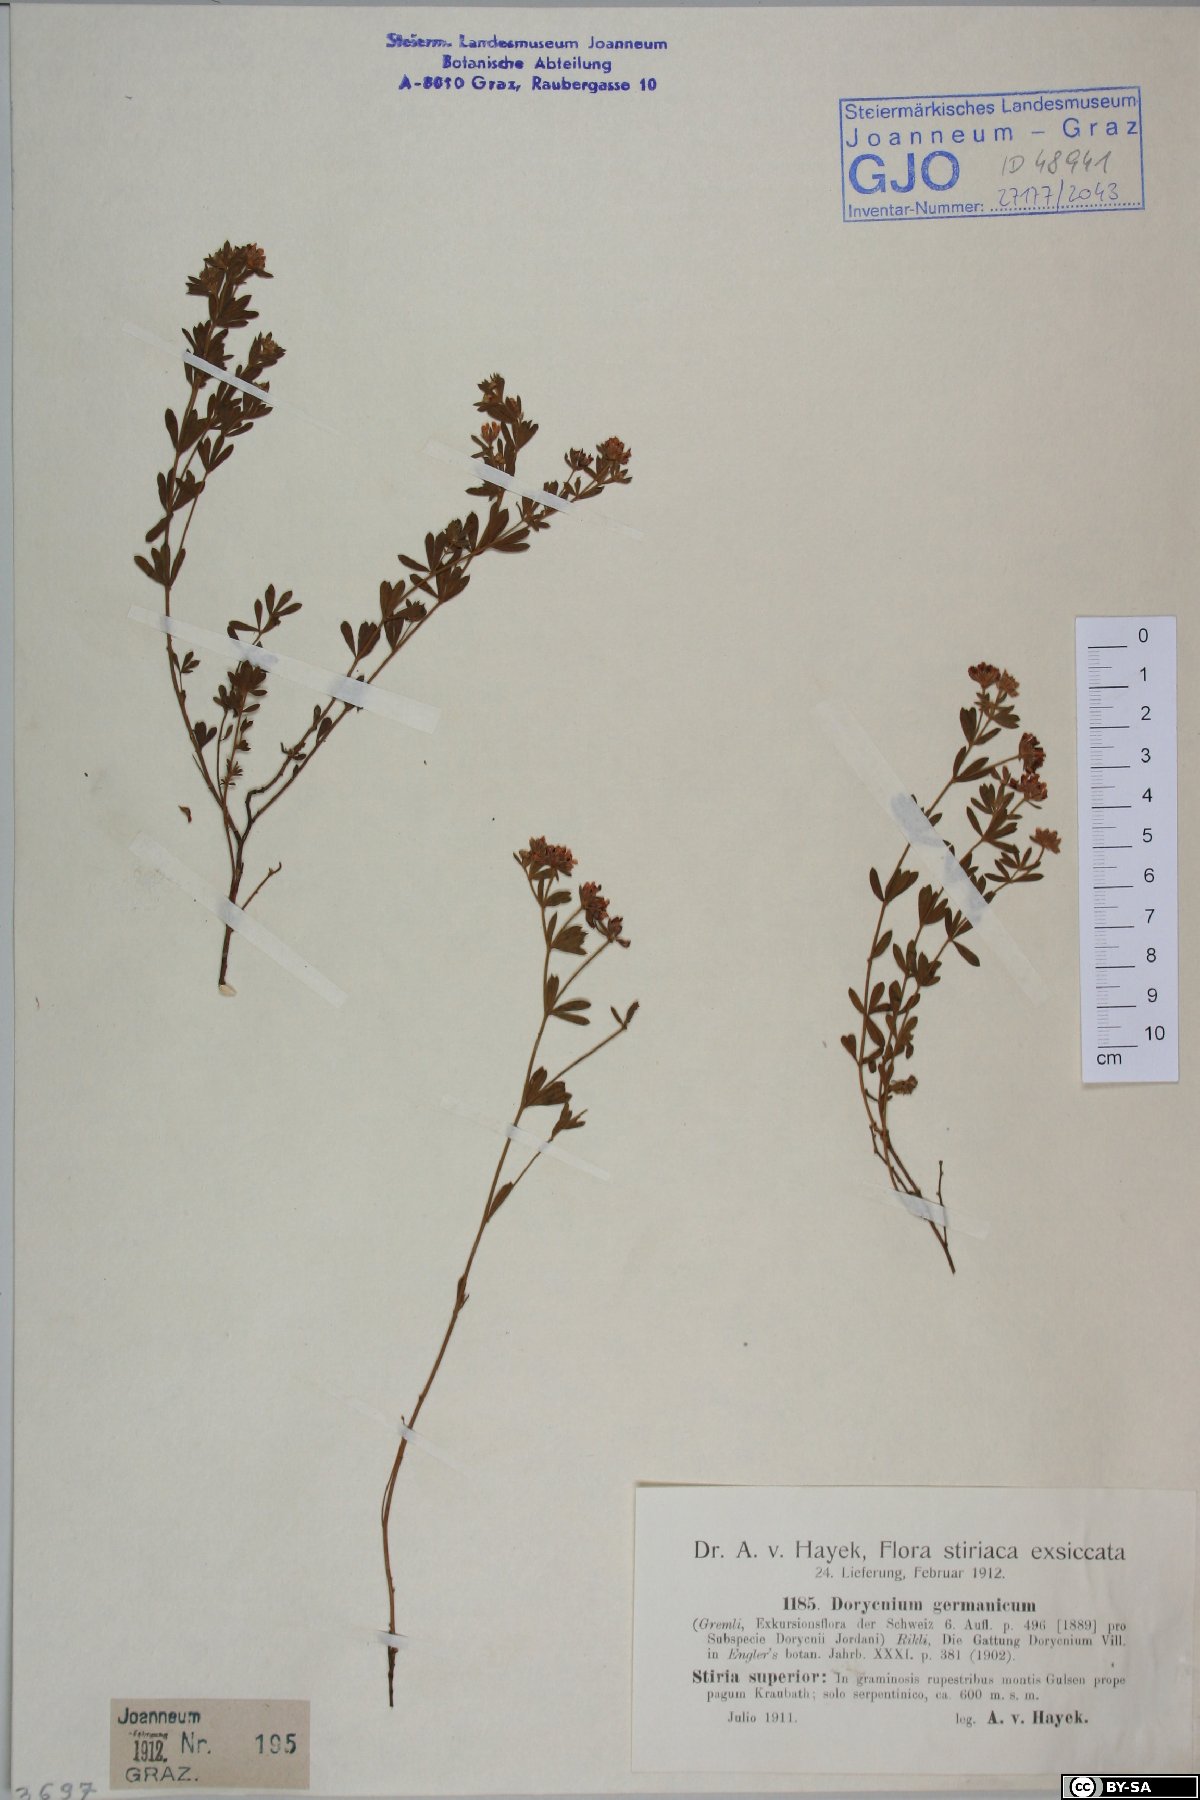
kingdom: Plantae
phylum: Tracheophyta
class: Magnoliopsida
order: Fabales
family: Fabaceae
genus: Lotus
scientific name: Lotus germanicus
